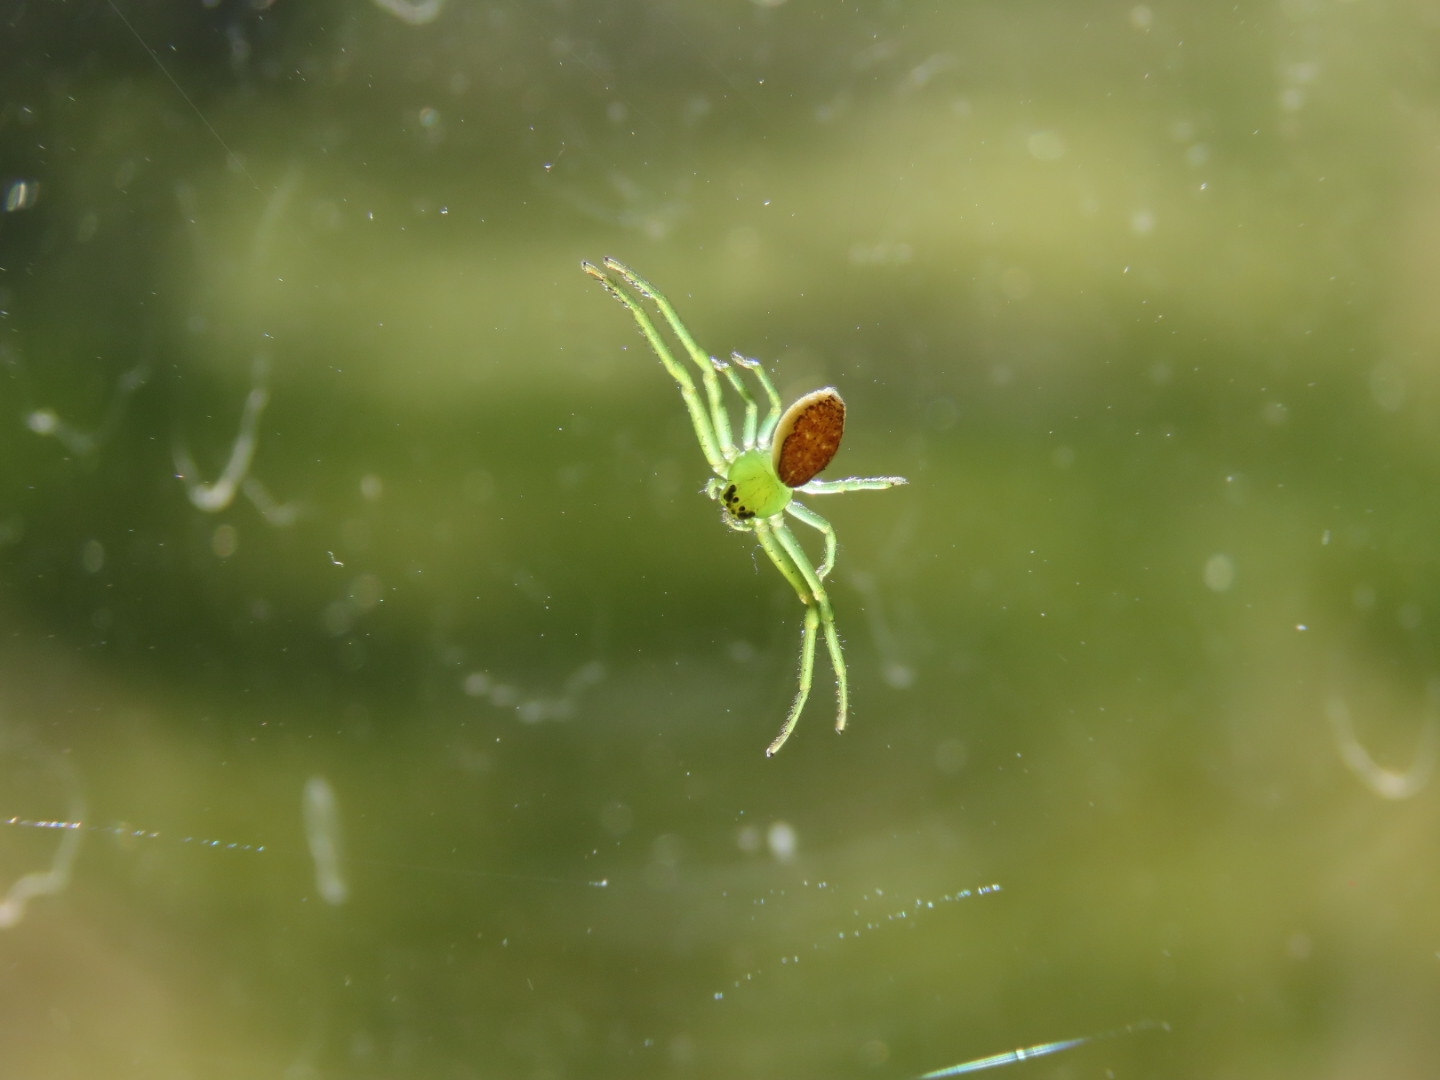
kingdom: Animalia
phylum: Arthropoda
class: Arachnida
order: Araneae
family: Thomisidae
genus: Diaea
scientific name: Diaea dorsata
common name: Grøn krabbeedderkop
